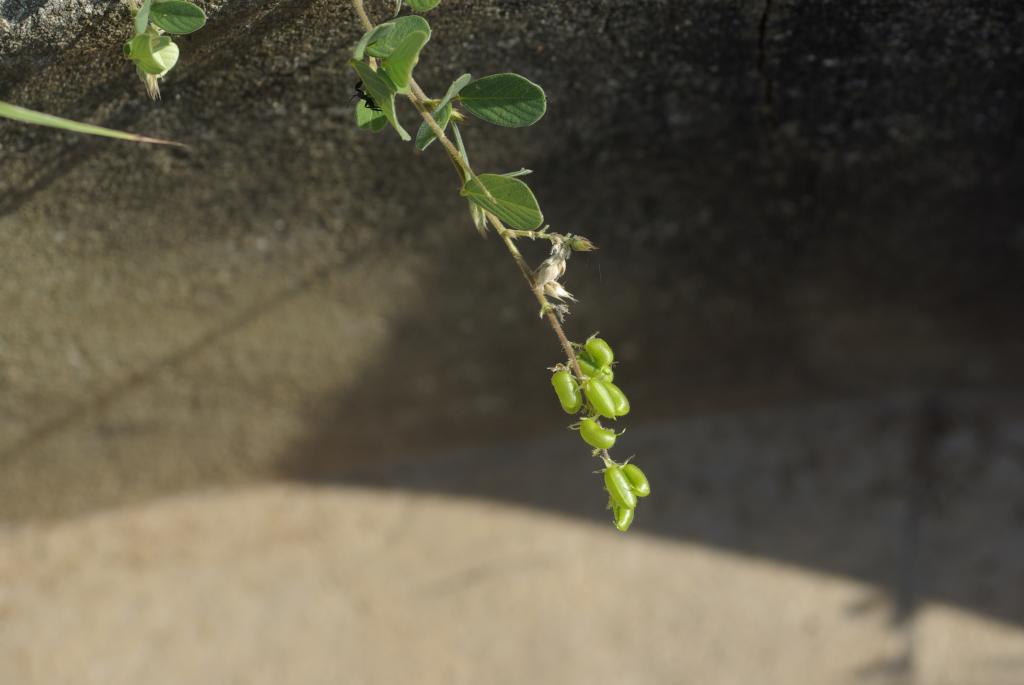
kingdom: Plantae
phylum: Tracheophyta
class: Magnoliopsida
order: Fabales
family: Fabaceae
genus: Pycnospora
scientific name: Pycnospora lutescens
